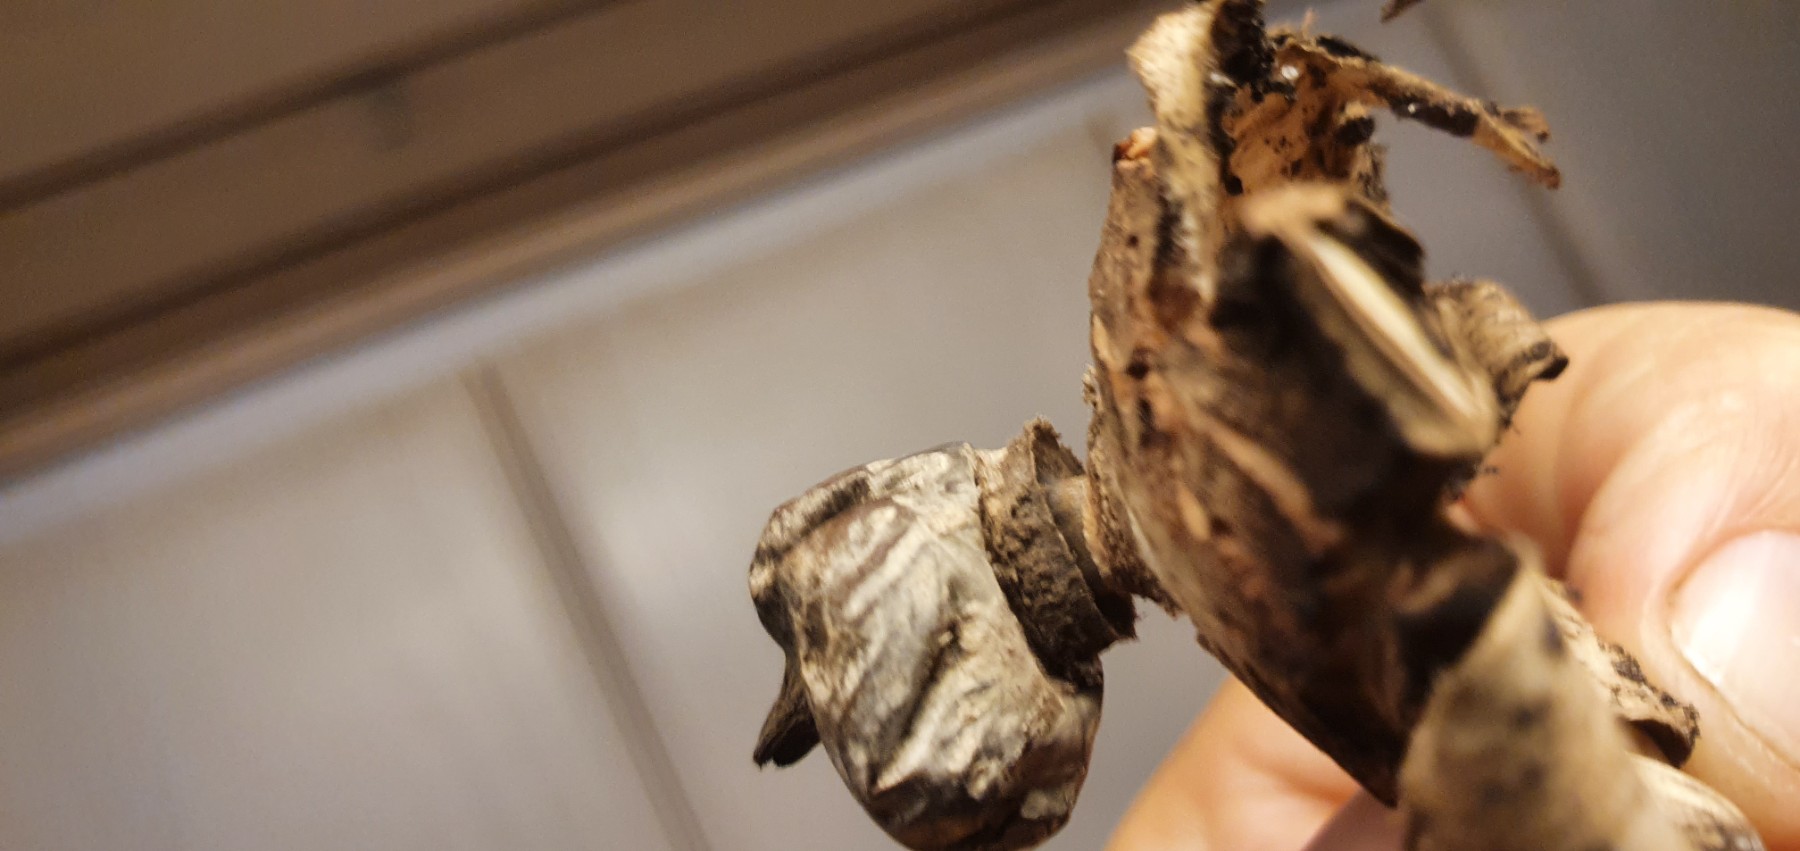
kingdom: Fungi
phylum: Basidiomycota
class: Agaricomycetes
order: Geastrales
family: Geastraceae
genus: Geastrum
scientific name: Geastrum striatum
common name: krave-stjernebold
